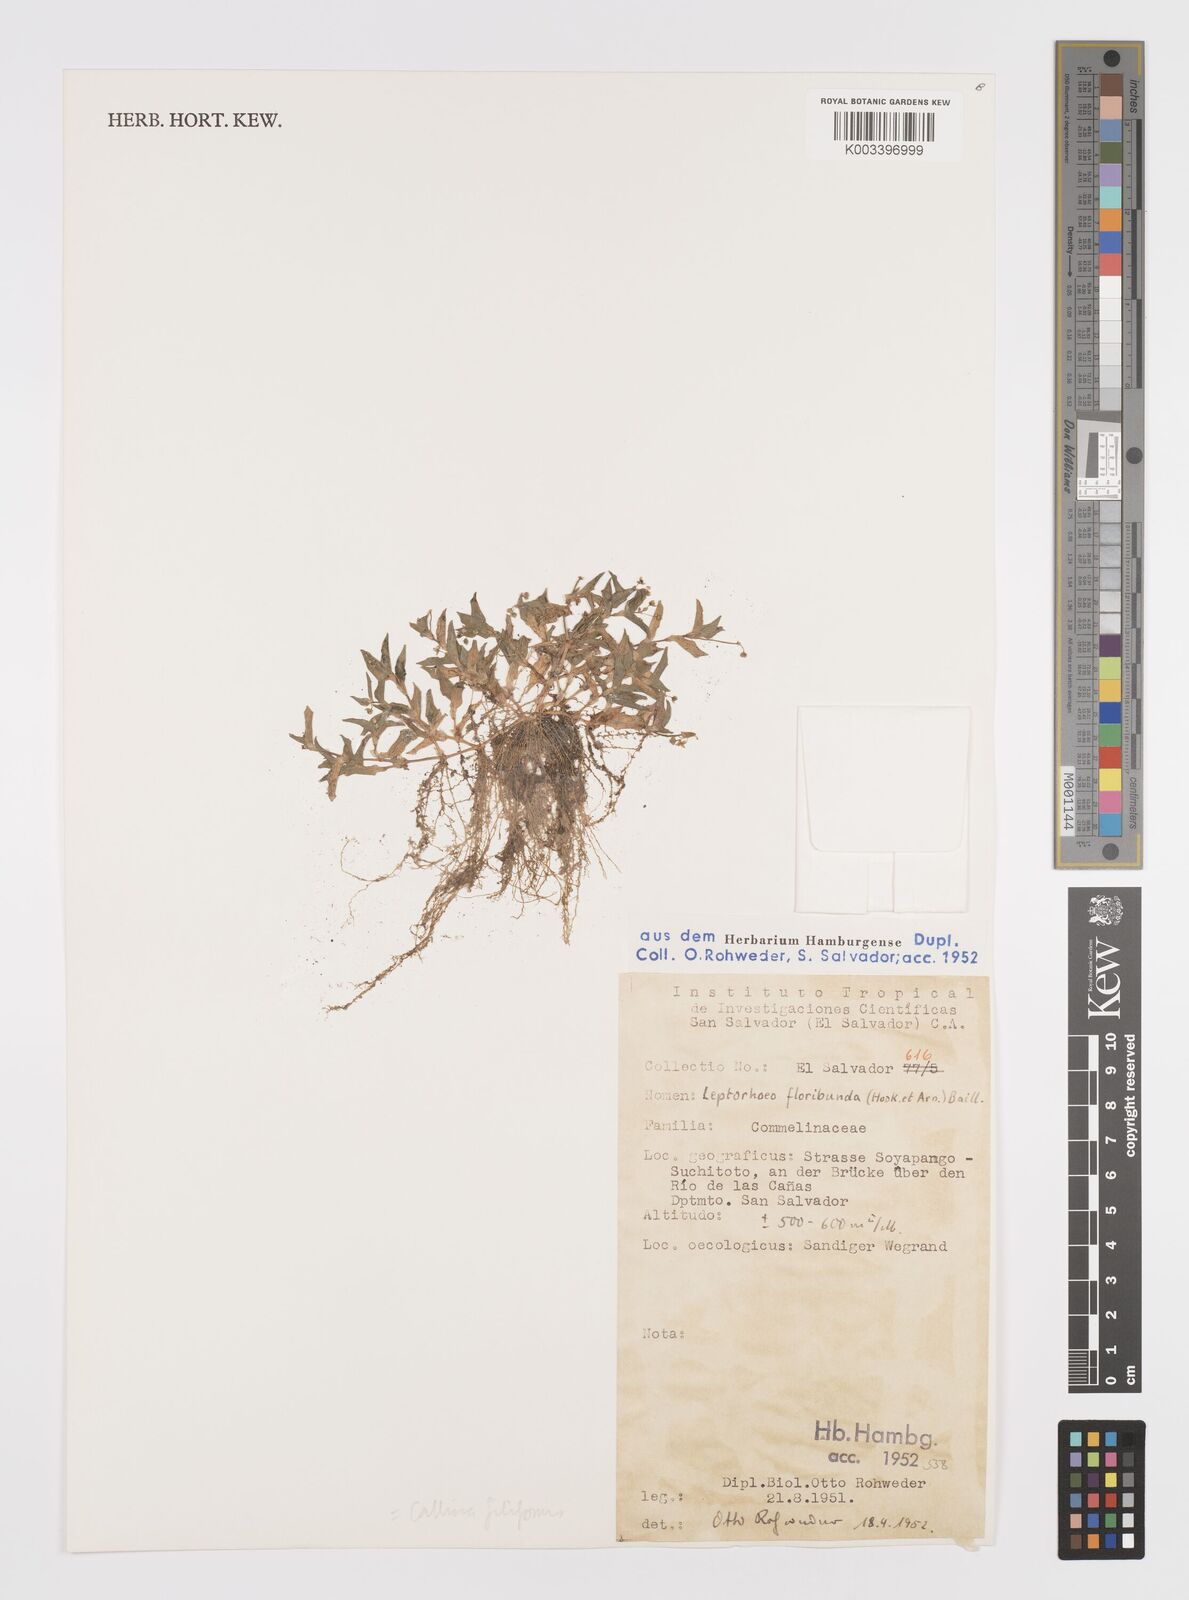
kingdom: Plantae
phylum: Tracheophyta
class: Liliopsida
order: Commelinales
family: Commelinaceae
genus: Callisia
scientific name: Callisia filiformis
